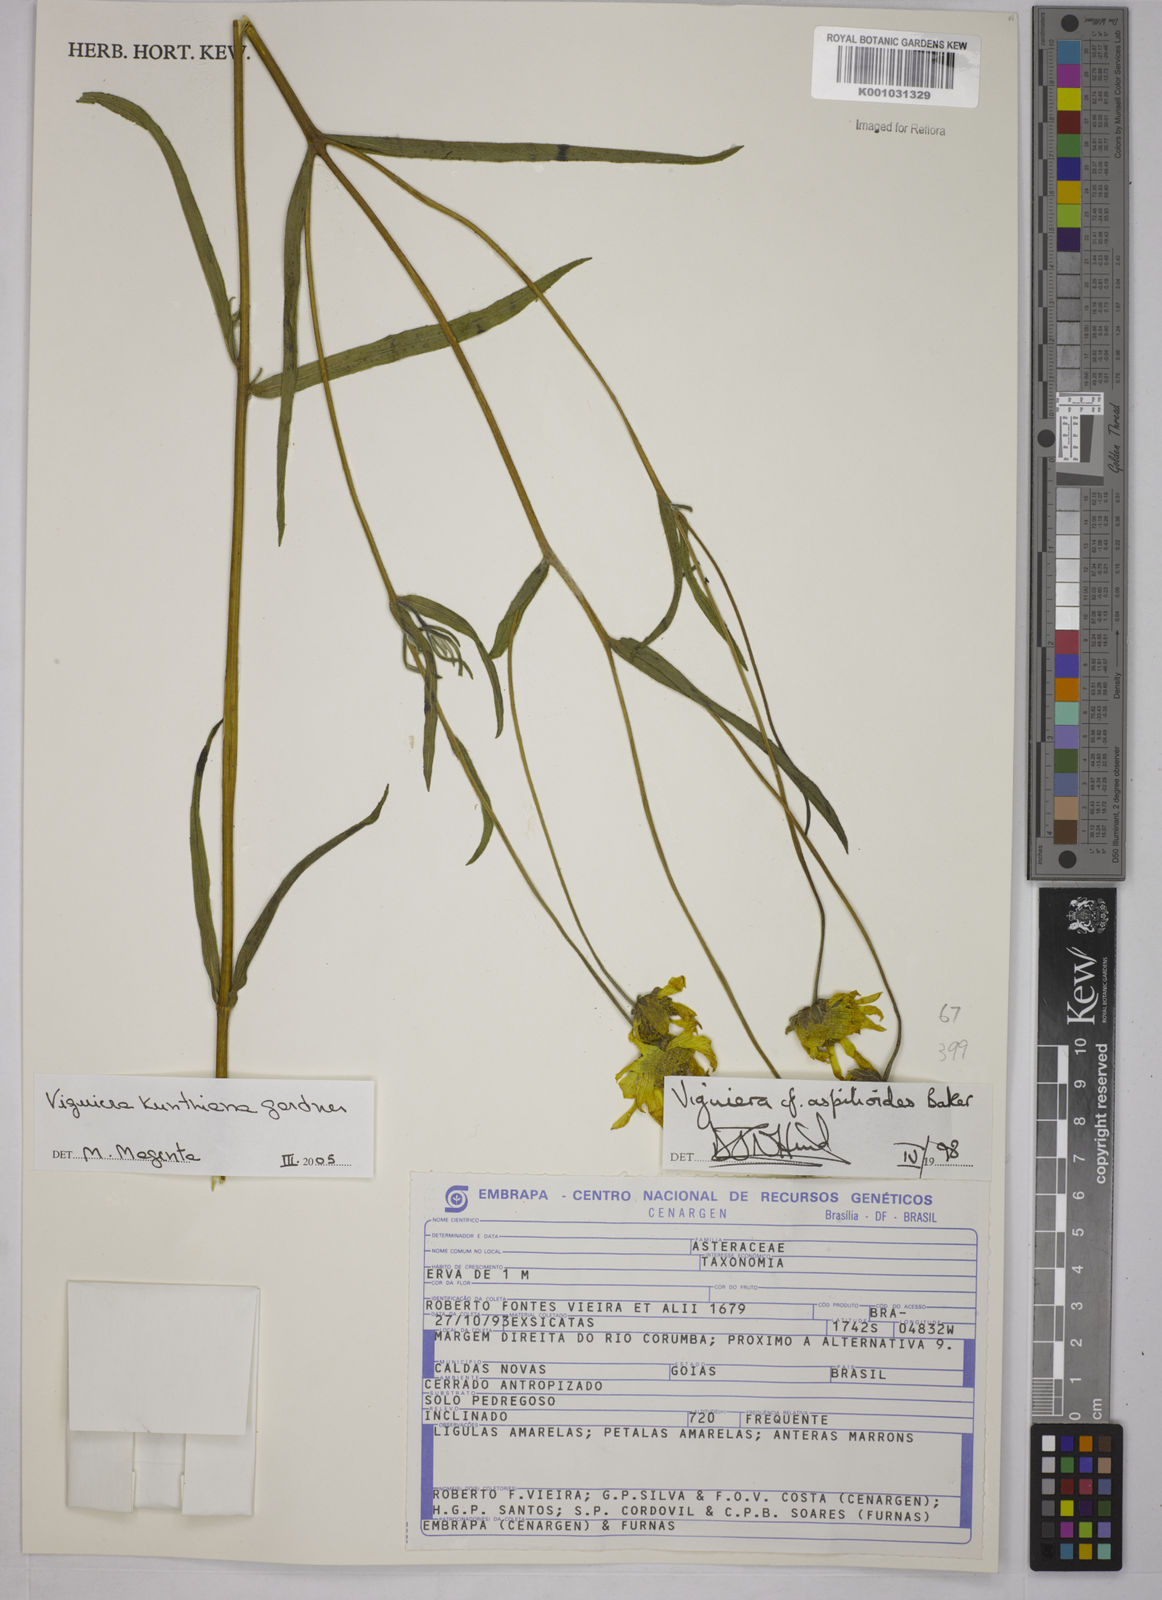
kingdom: Plantae
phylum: Tracheophyta
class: Magnoliopsida
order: Asterales
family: Asteraceae
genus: Aldama
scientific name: Aldama kunthiana
